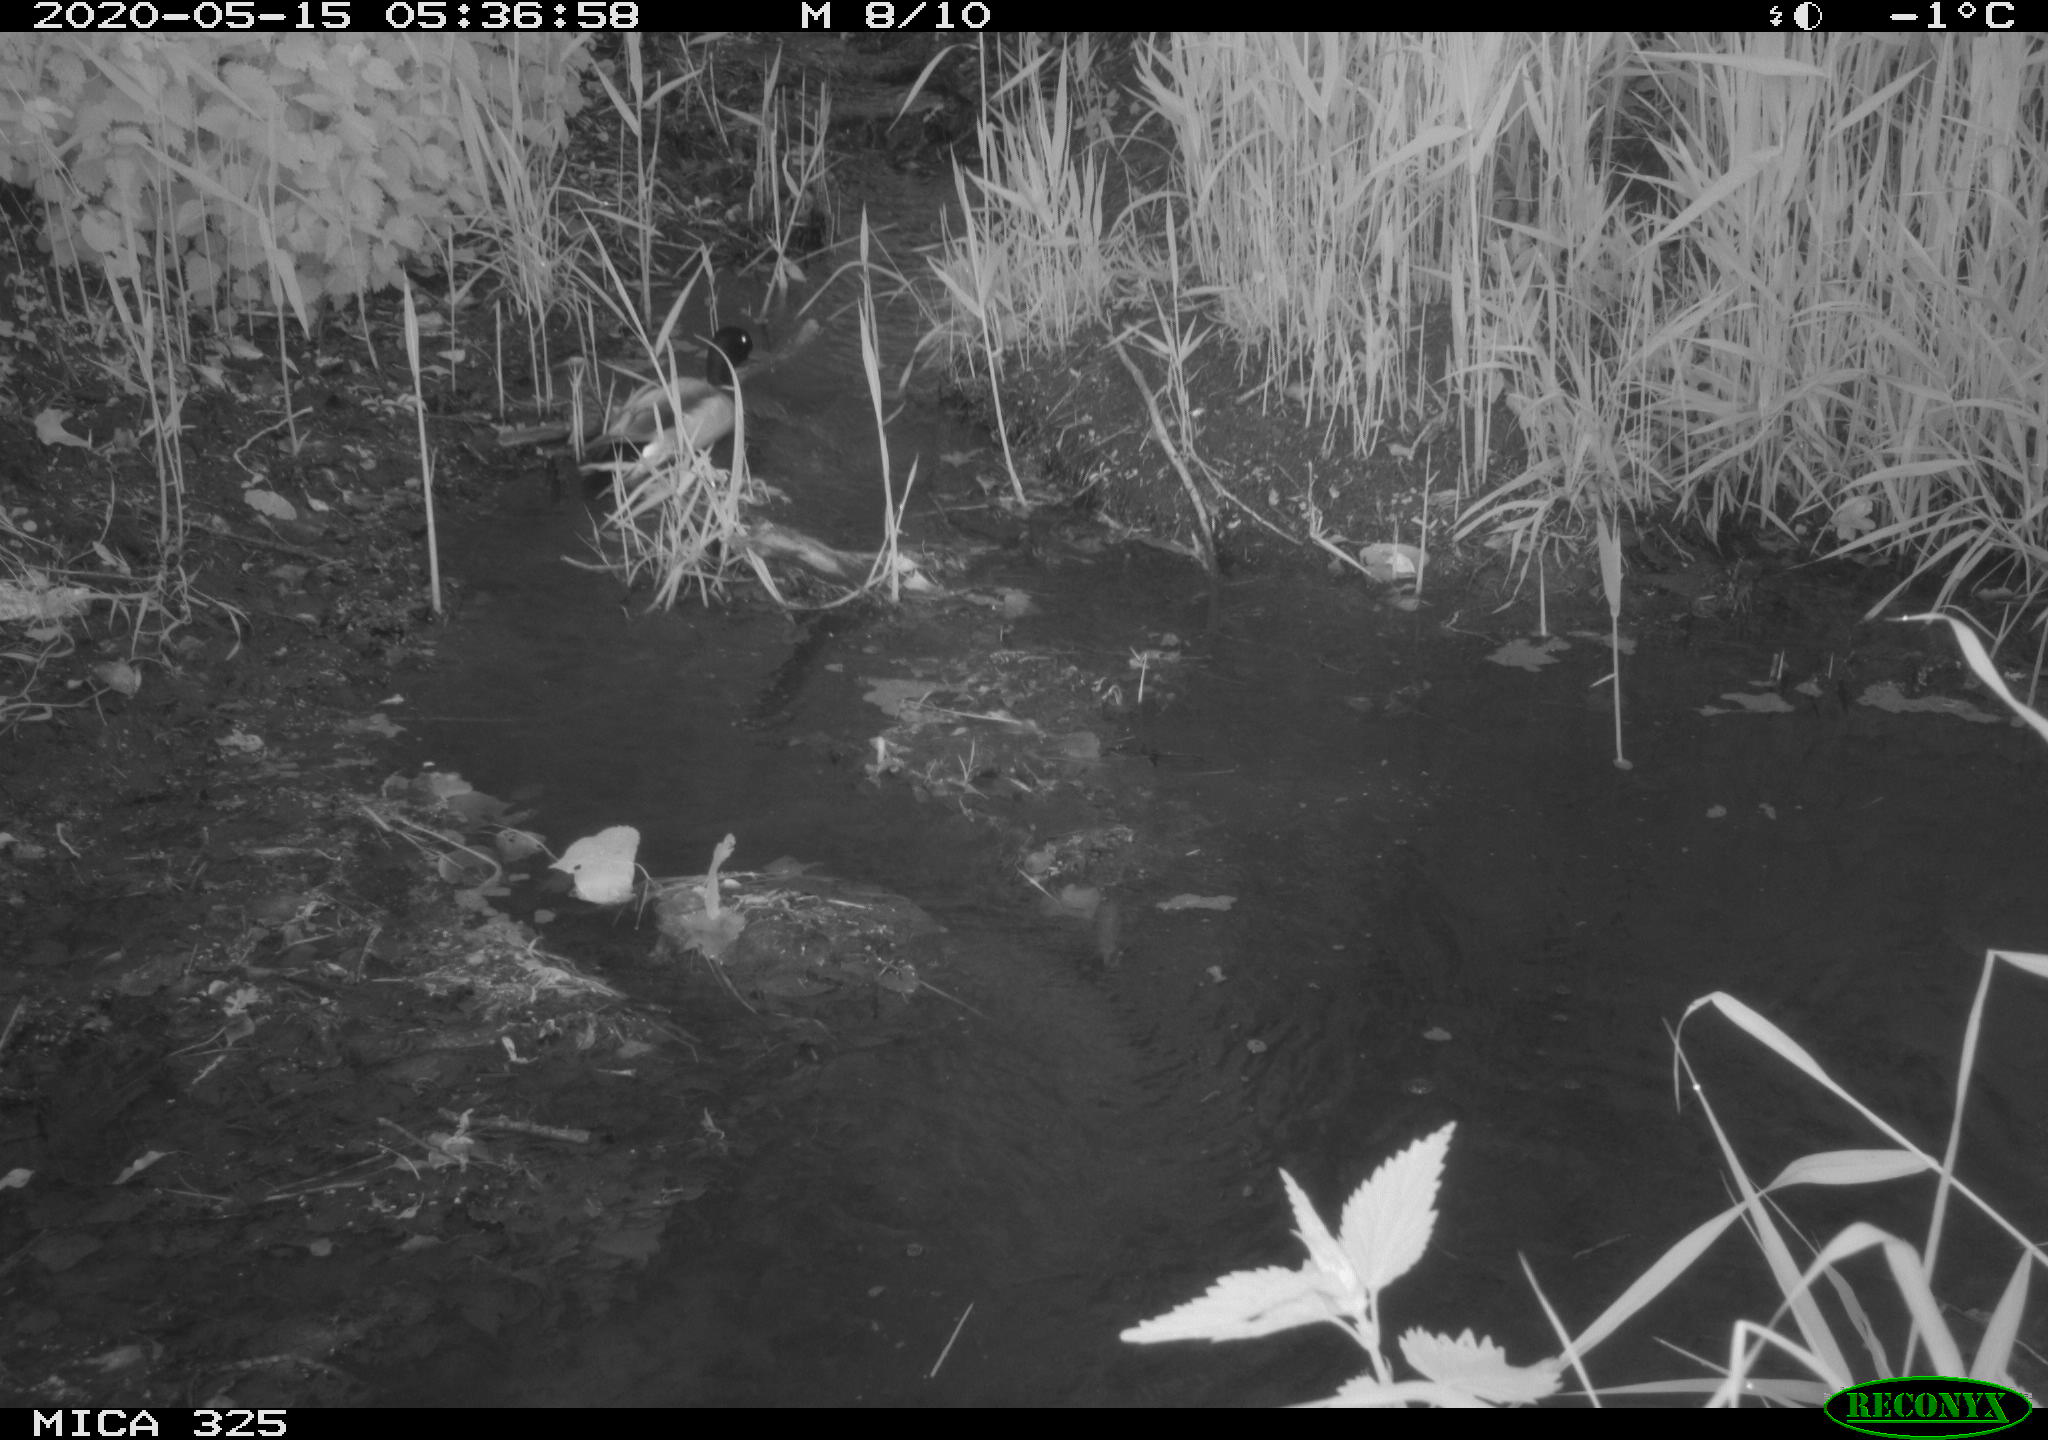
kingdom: Animalia
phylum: Chordata
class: Aves
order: Anseriformes
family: Anatidae
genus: Anas
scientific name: Anas platyrhynchos
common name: Mallard
